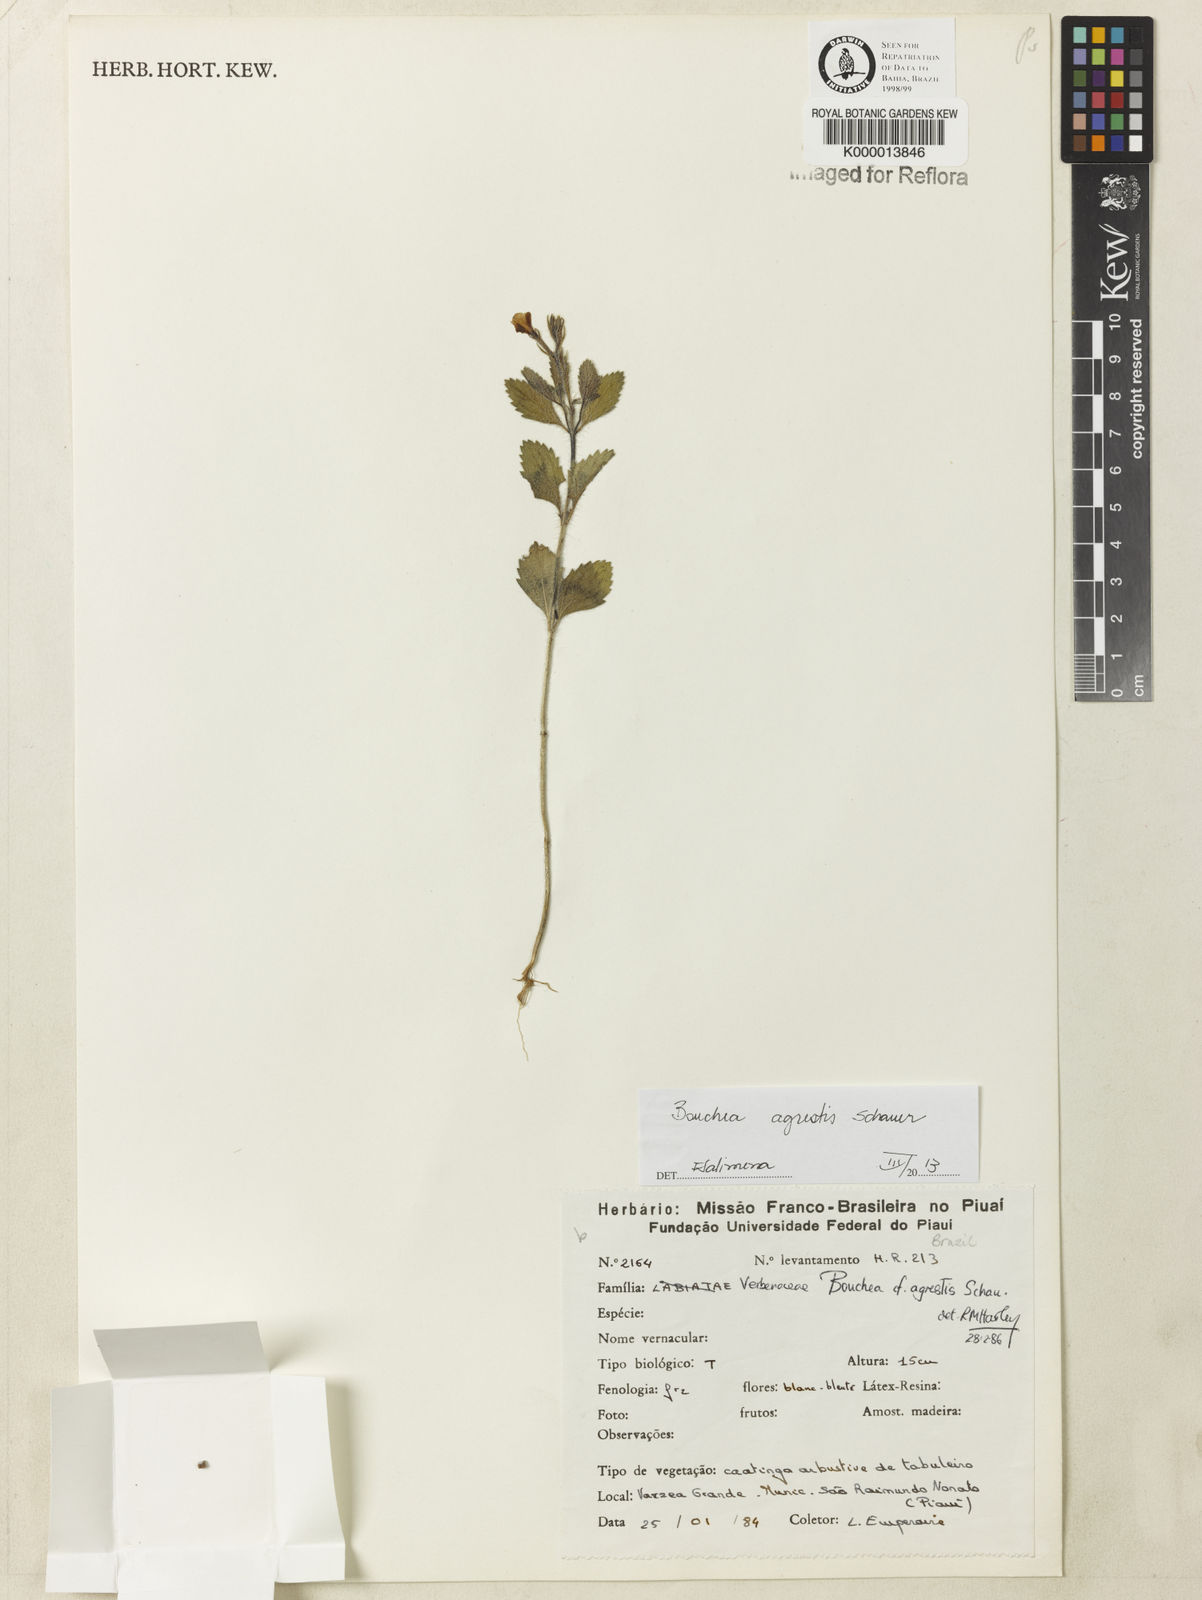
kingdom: Plantae
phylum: Tracheophyta
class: Magnoliopsida
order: Lamiales
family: Verbenaceae
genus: Bouchea
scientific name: Bouchea agrestis
